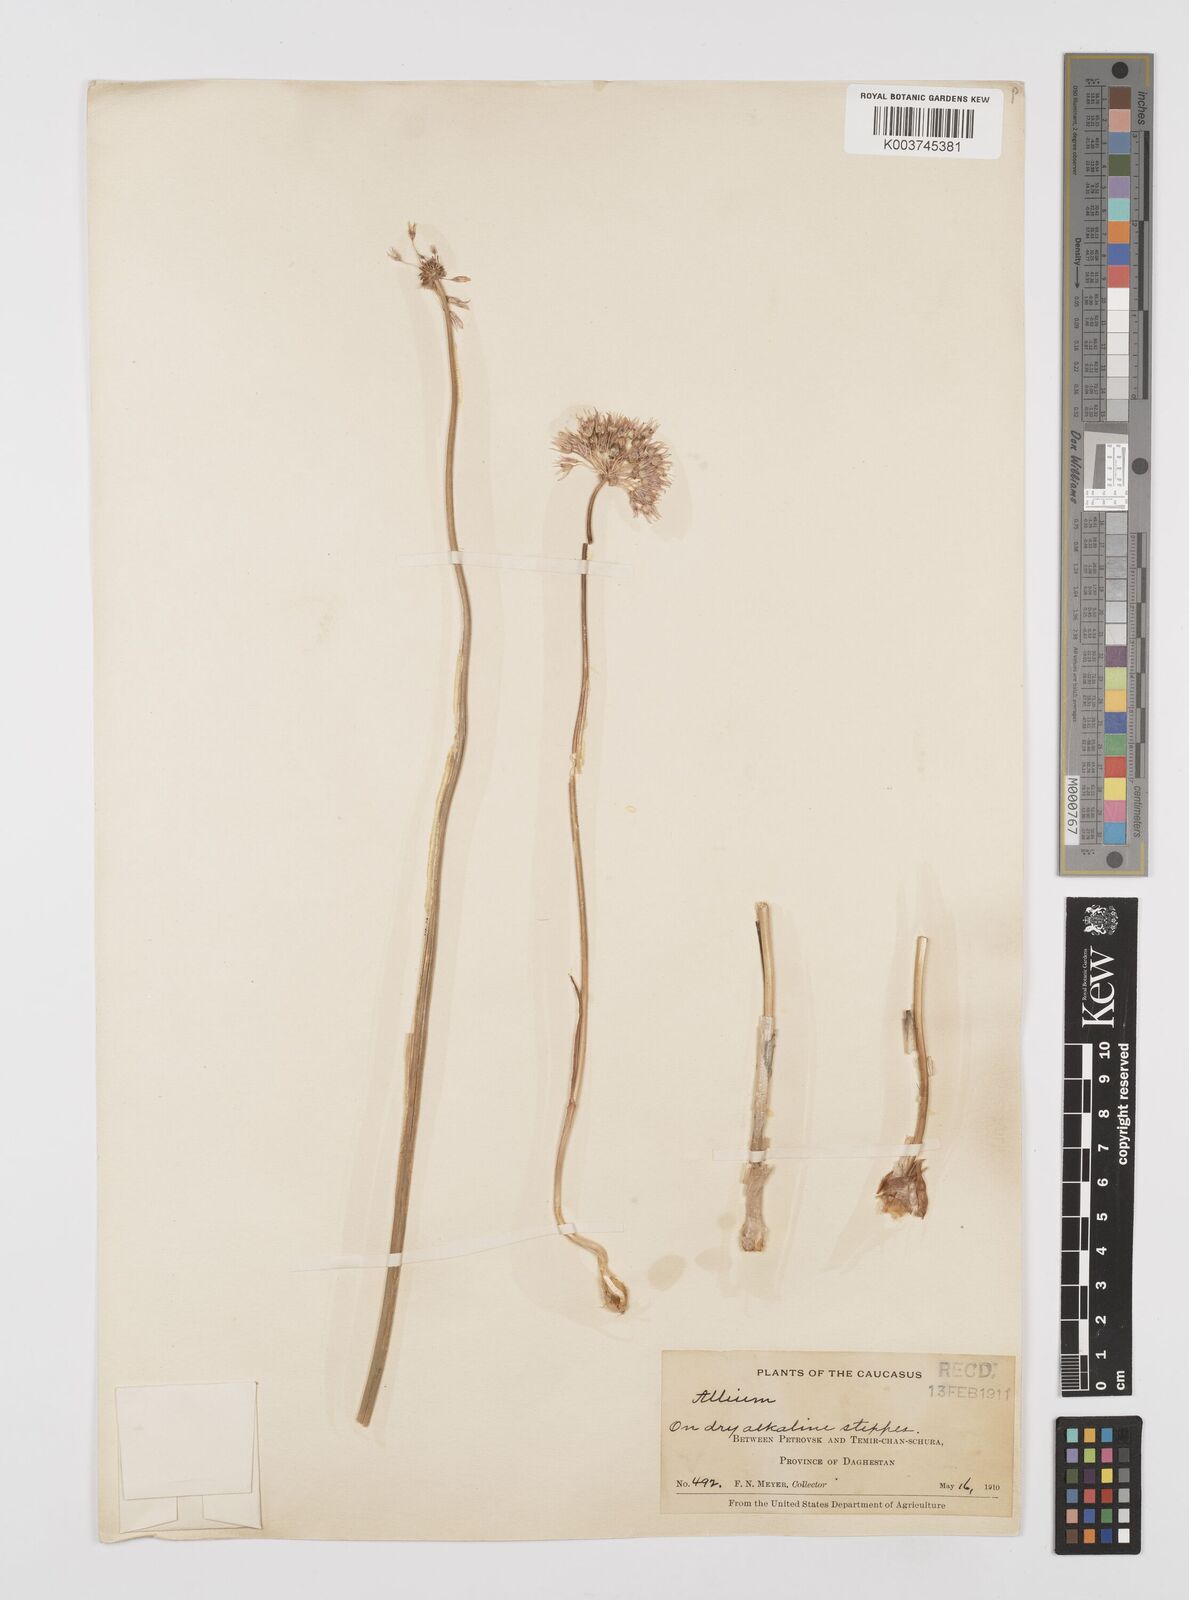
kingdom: Plantae
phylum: Tracheophyta
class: Liliopsida
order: Asparagales
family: Amaryllidaceae
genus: Allium
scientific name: Allium
